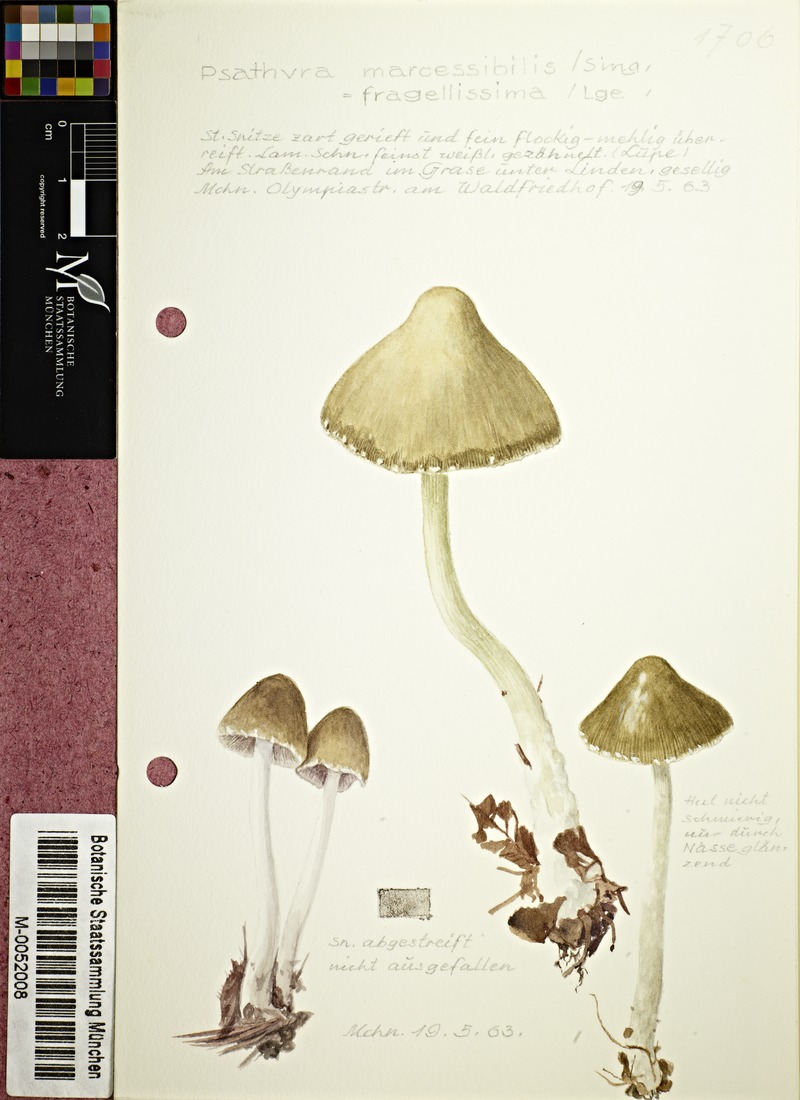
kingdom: Fungi
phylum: Basidiomycota
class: Agaricomycetes
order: Agaricales
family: Psathyrellaceae
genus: Coprinopsis
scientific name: Coprinopsis marcescibilis
